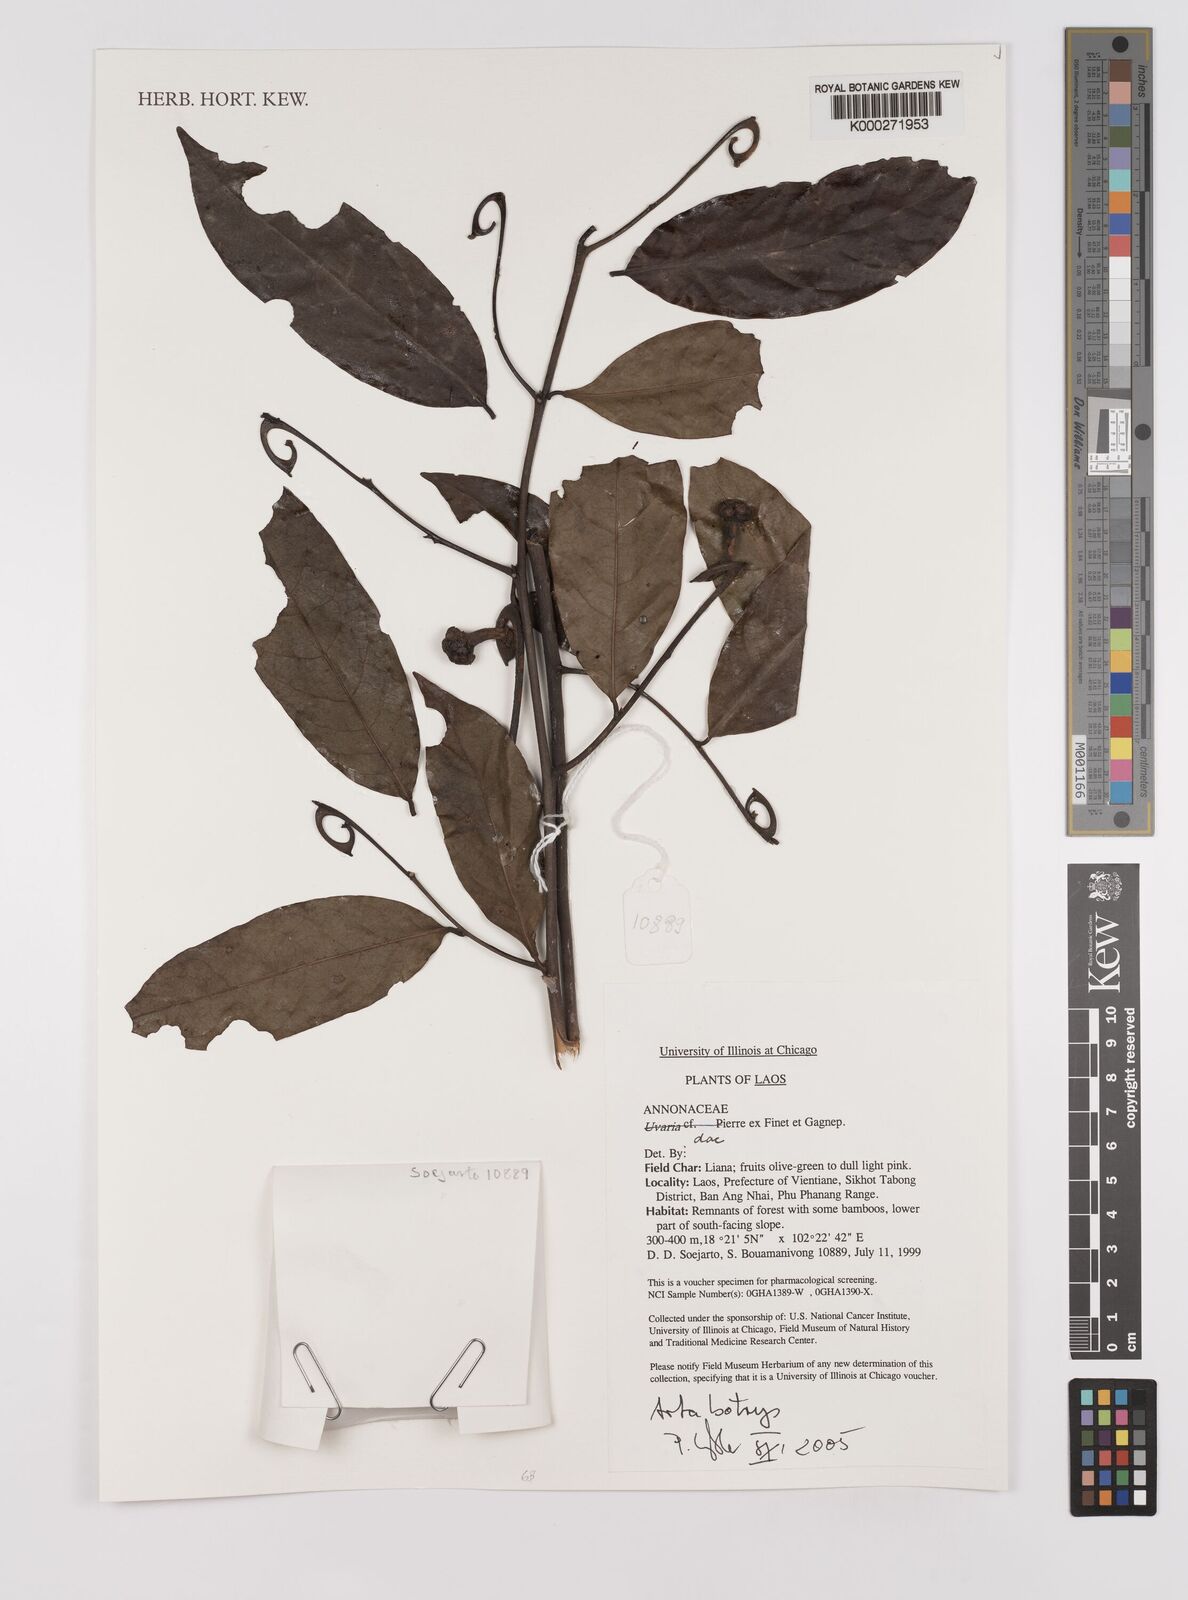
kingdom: Plantae
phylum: Tracheophyta
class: Magnoliopsida
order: Magnoliales
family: Annonaceae
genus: Artabotrys
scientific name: Artabotrys
